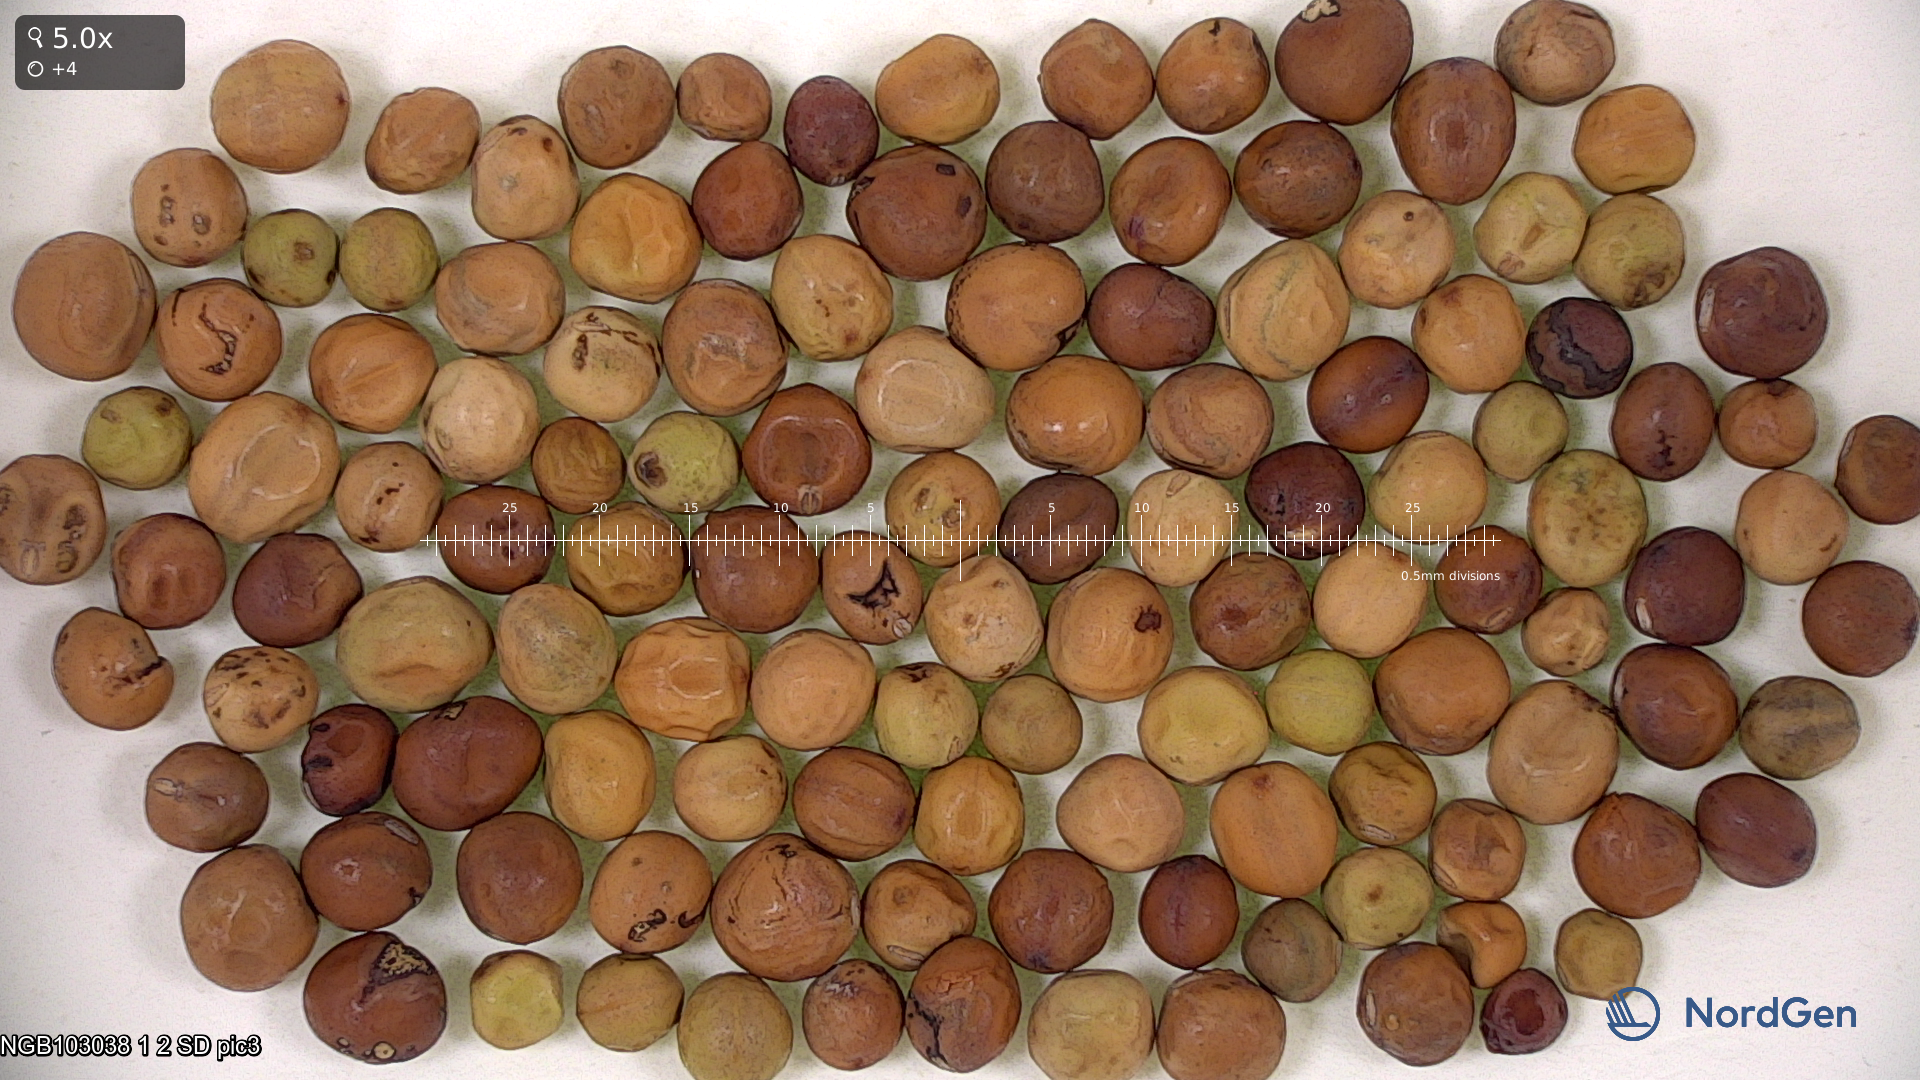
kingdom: Plantae
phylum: Tracheophyta
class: Magnoliopsida
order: Fabales
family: Fabaceae
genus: Lathyrus
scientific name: Lathyrus oleraceus
